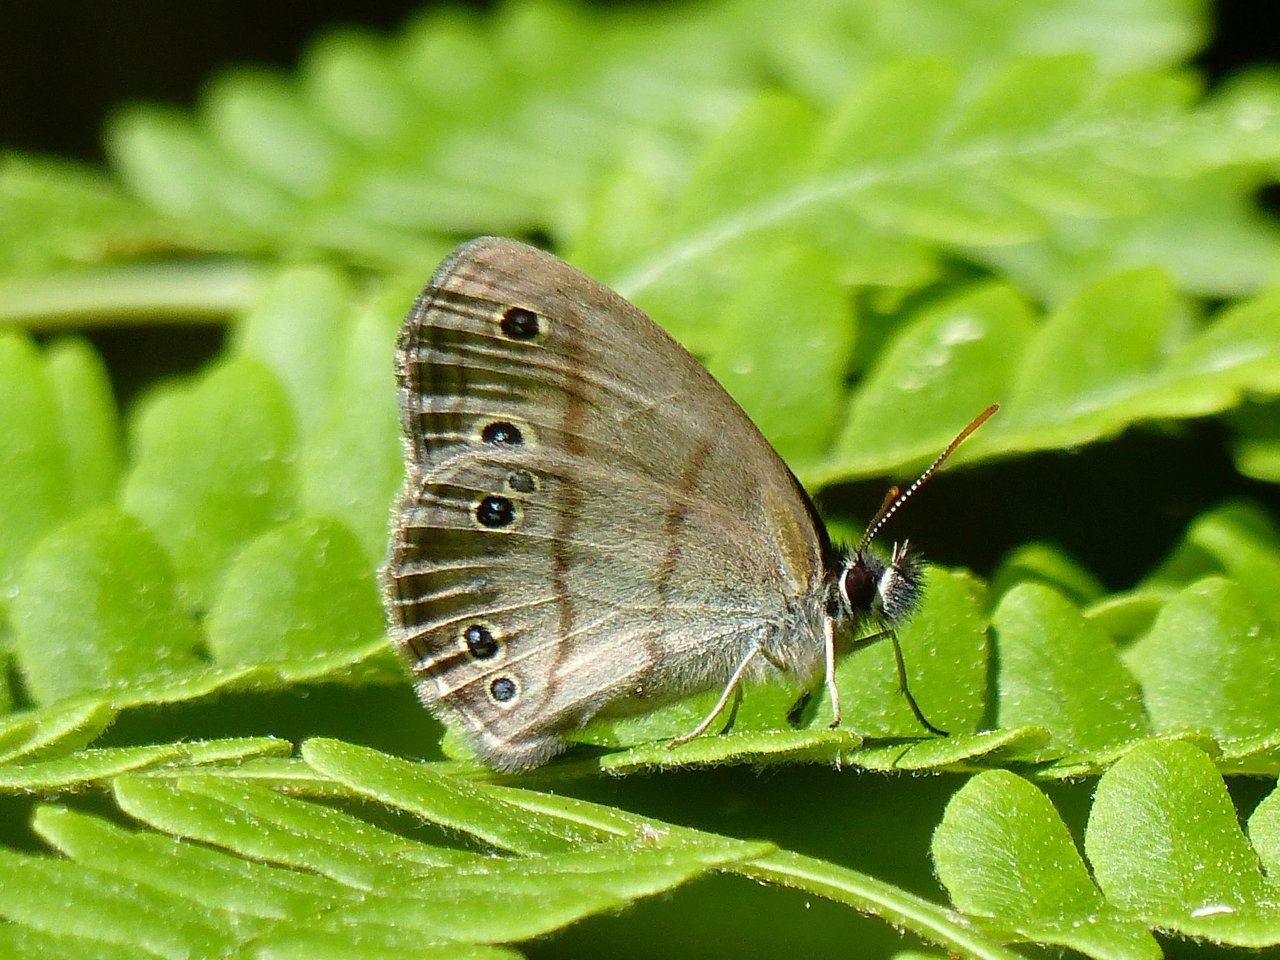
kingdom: Animalia
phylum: Arthropoda
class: Insecta
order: Lepidoptera
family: Nymphalidae
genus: Euptychia
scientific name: Euptychia cymela
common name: Little Wood Satyr
